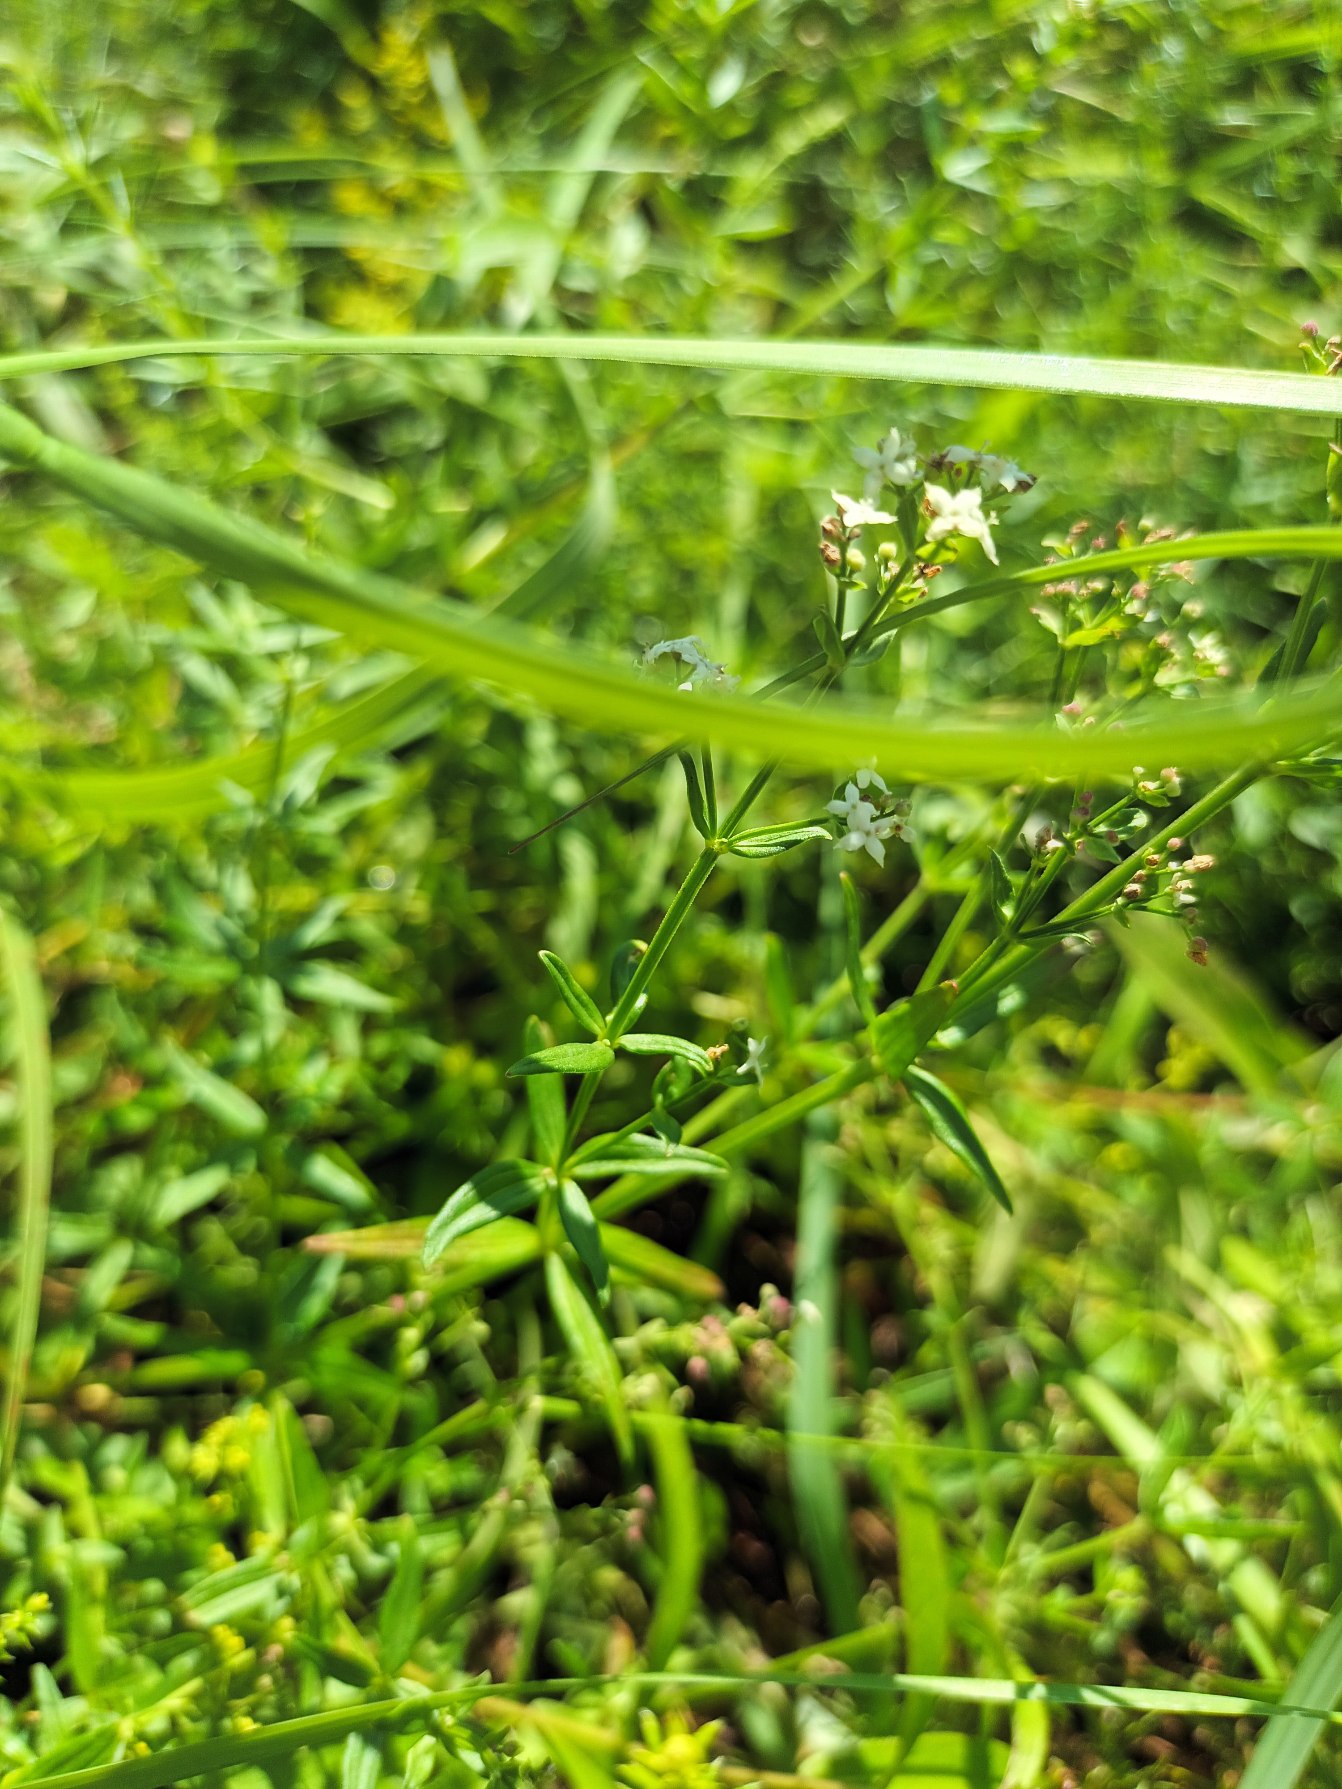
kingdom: Plantae
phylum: Tracheophyta
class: Magnoliopsida
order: Gentianales
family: Rubiaceae
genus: Galium
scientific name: Galium boreale
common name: Trenervet snerre
